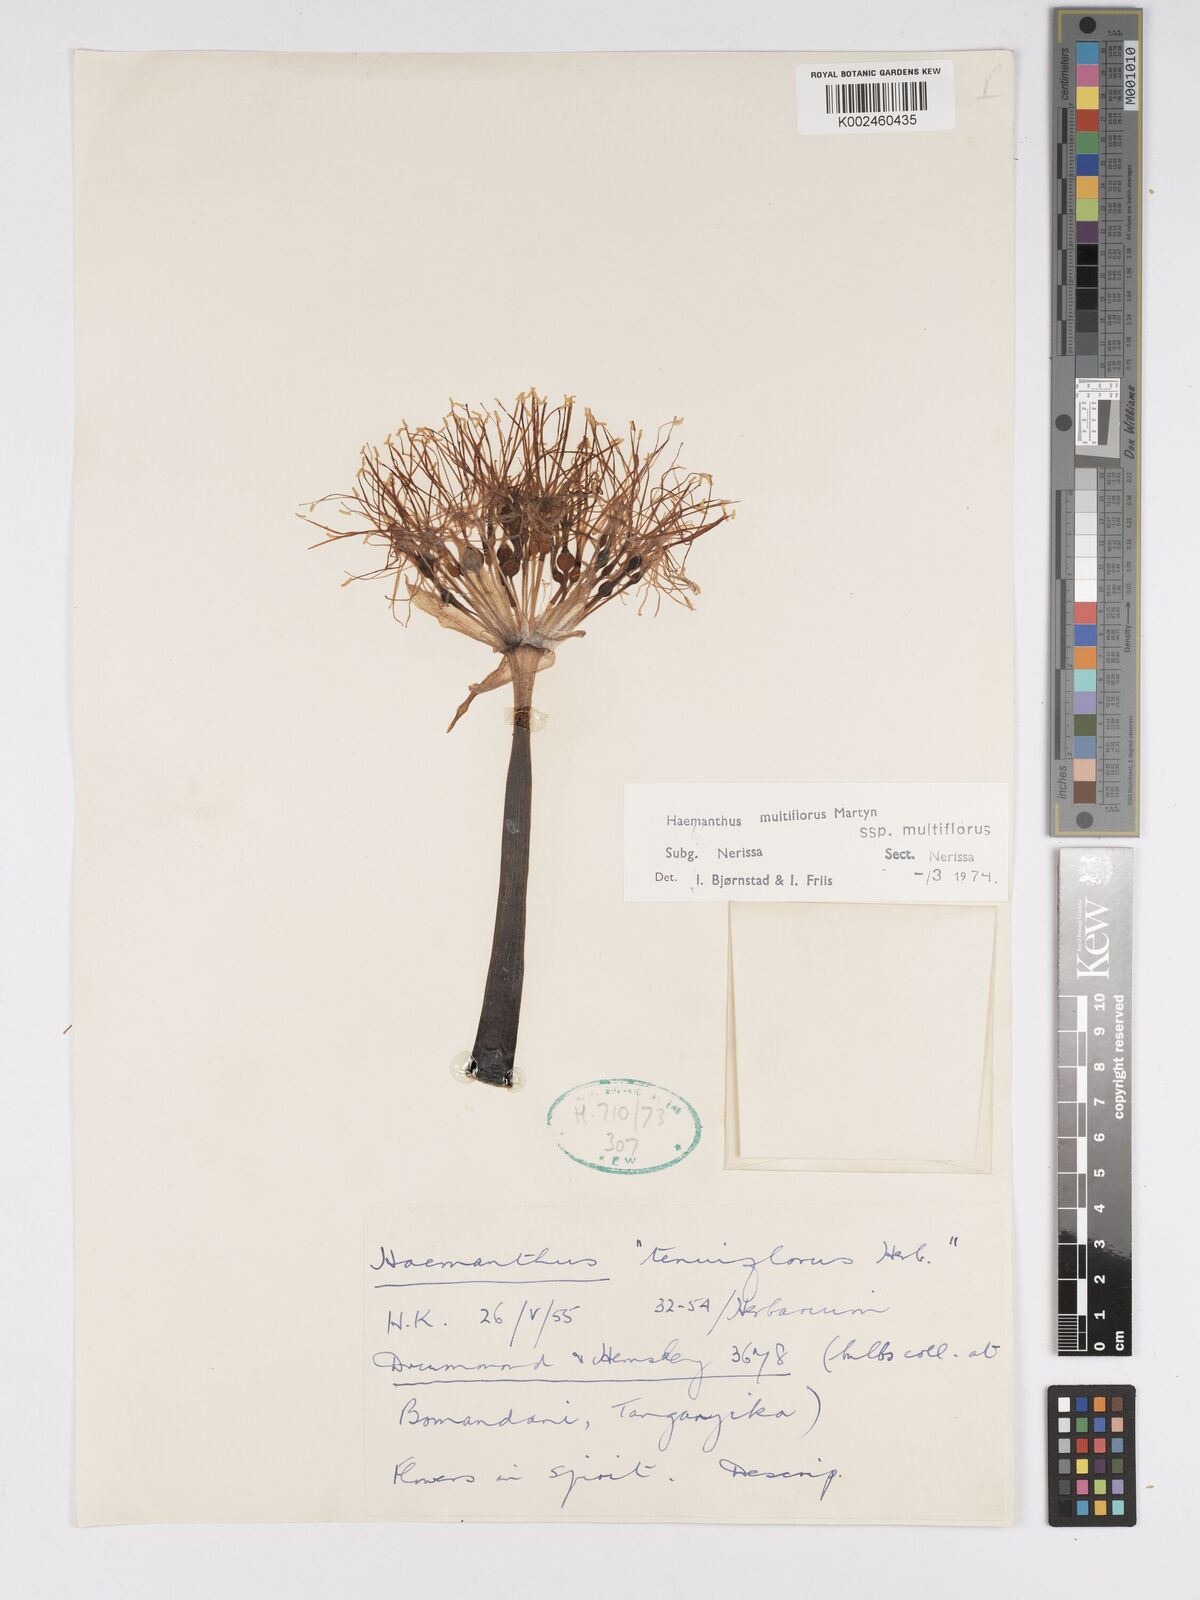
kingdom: Plantae
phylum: Tracheophyta
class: Liliopsida
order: Asparagales
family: Amaryllidaceae
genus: Scadoxus
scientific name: Scadoxus multiflorus
